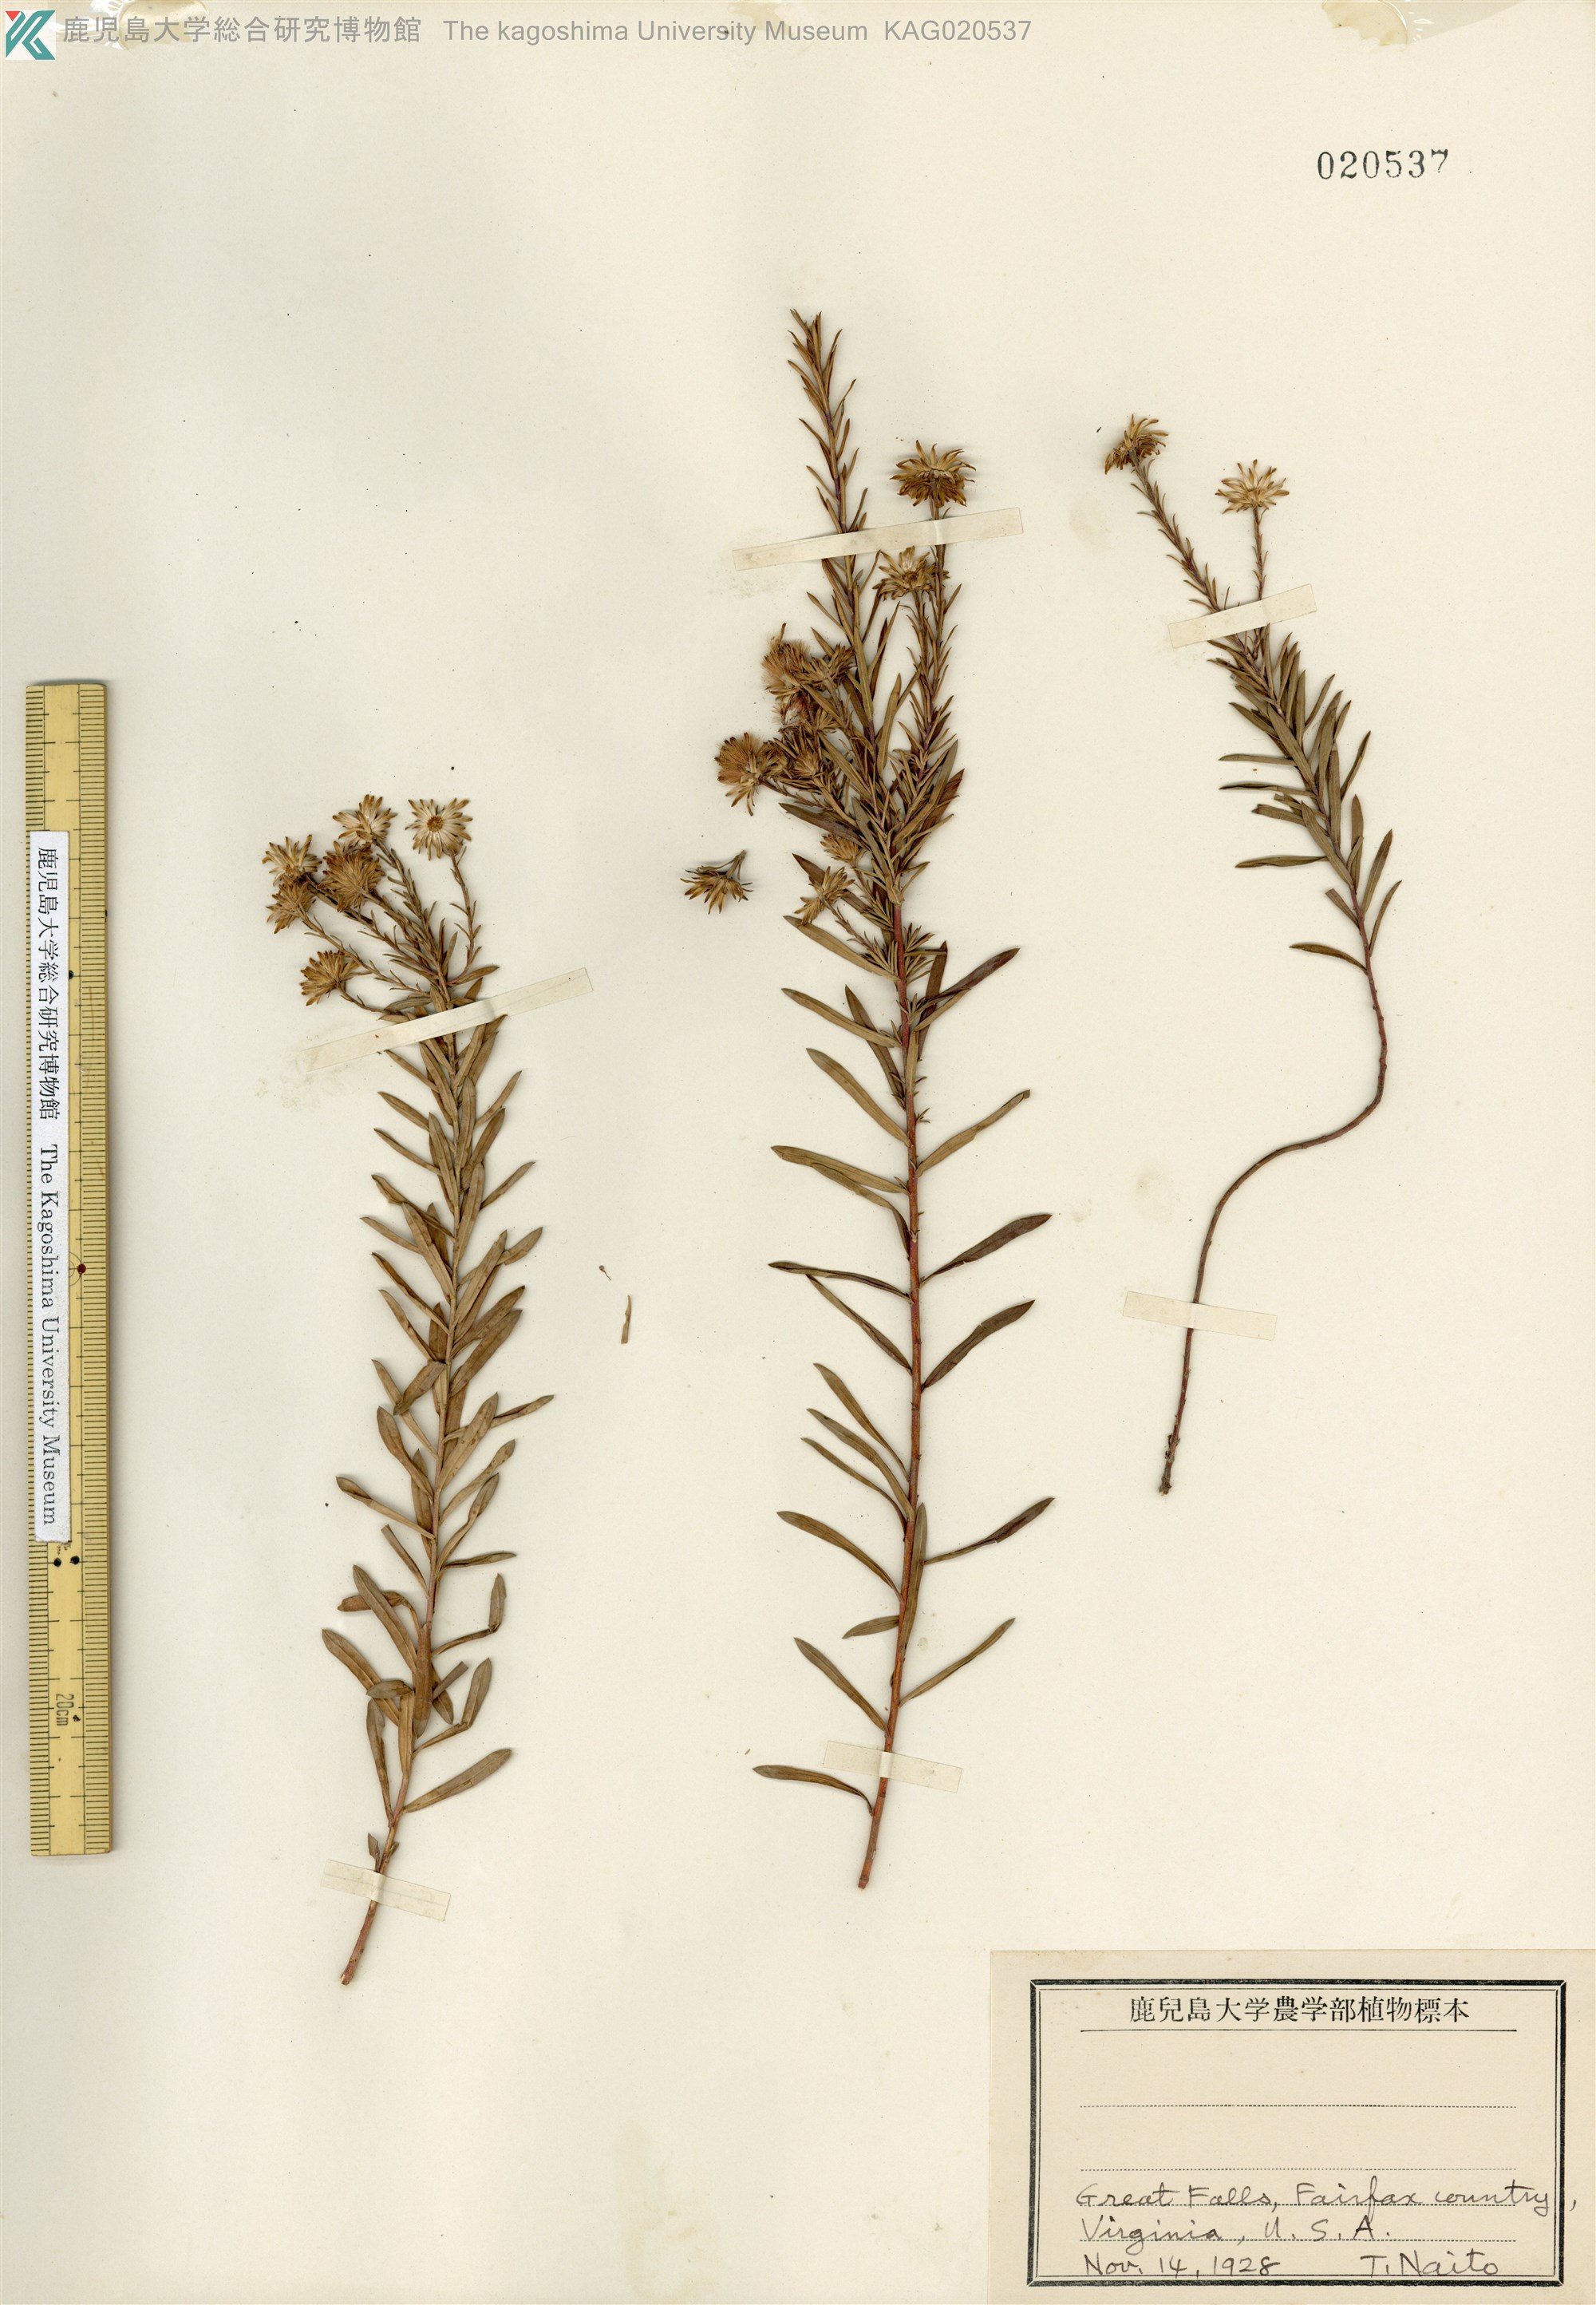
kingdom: Plantae
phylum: Tracheophyta
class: Magnoliopsida
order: Asterales
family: Asteraceae
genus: Aster
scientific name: Aster
